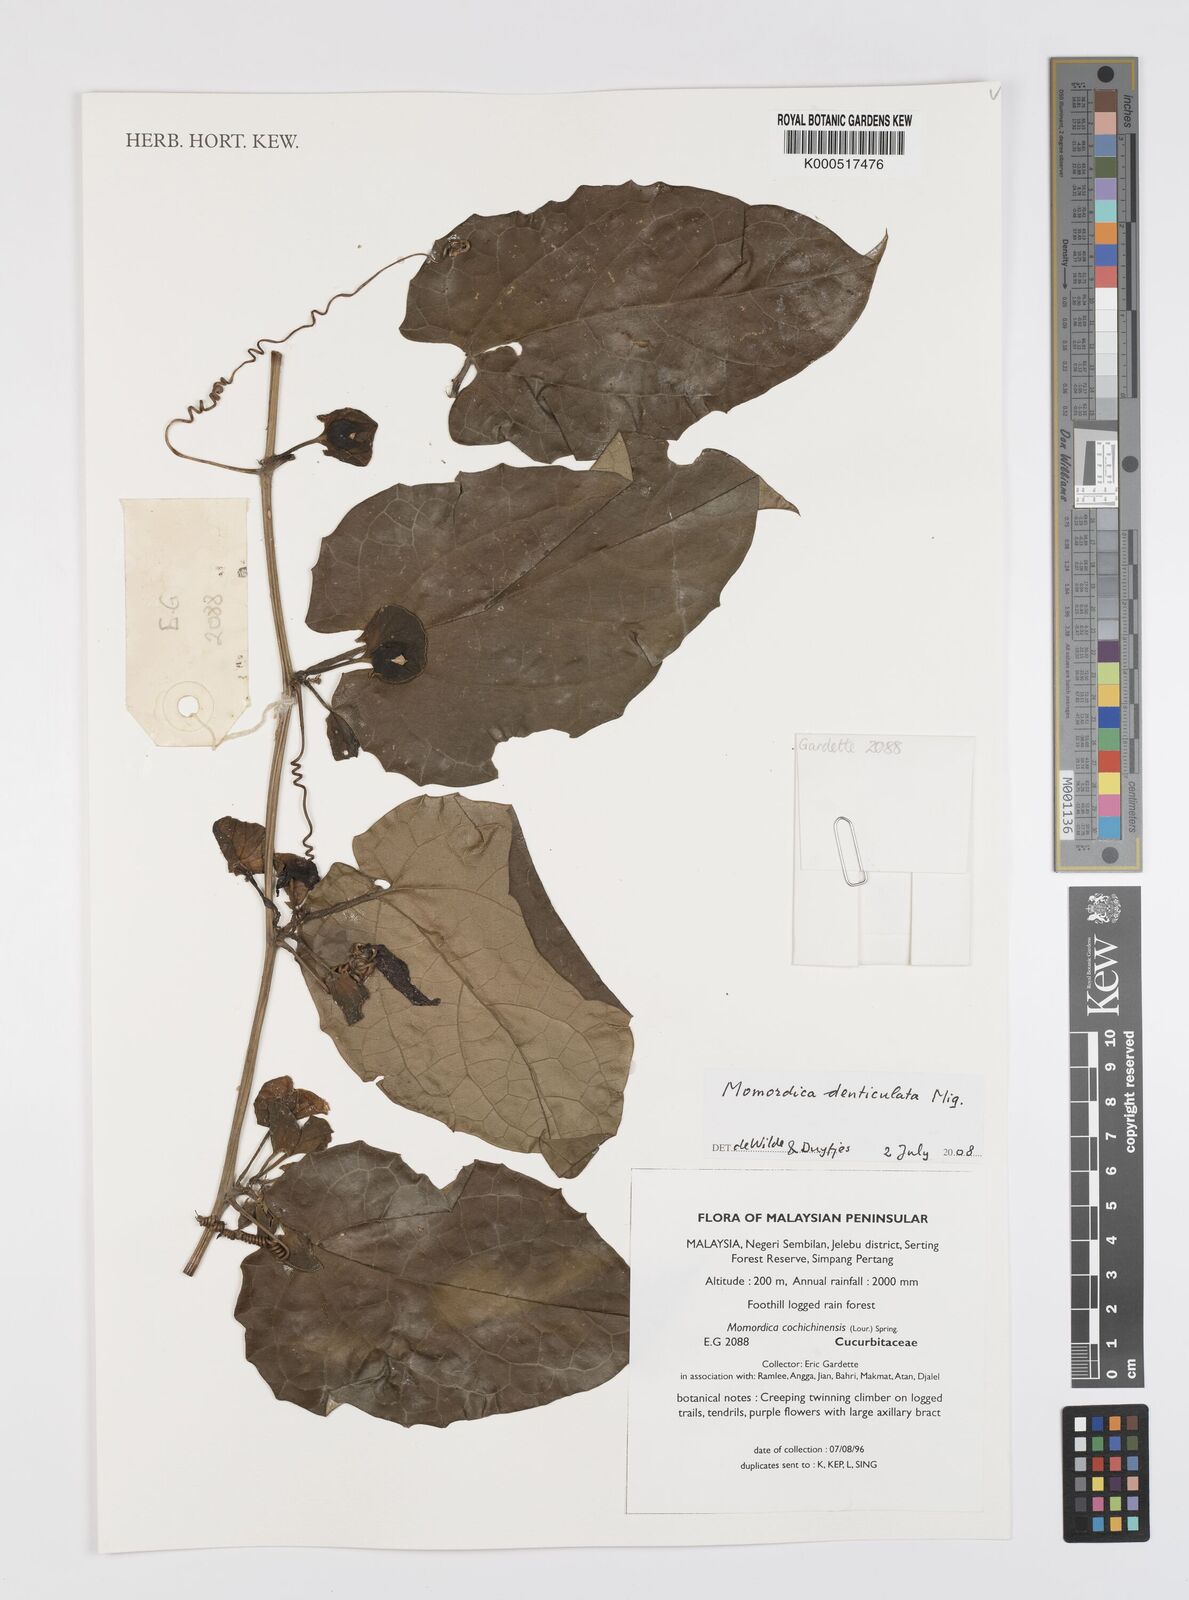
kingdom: Plantae
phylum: Tracheophyta
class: Magnoliopsida
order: Cucurbitales
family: Cucurbitaceae
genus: Momordica
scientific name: Momordica denticulata
